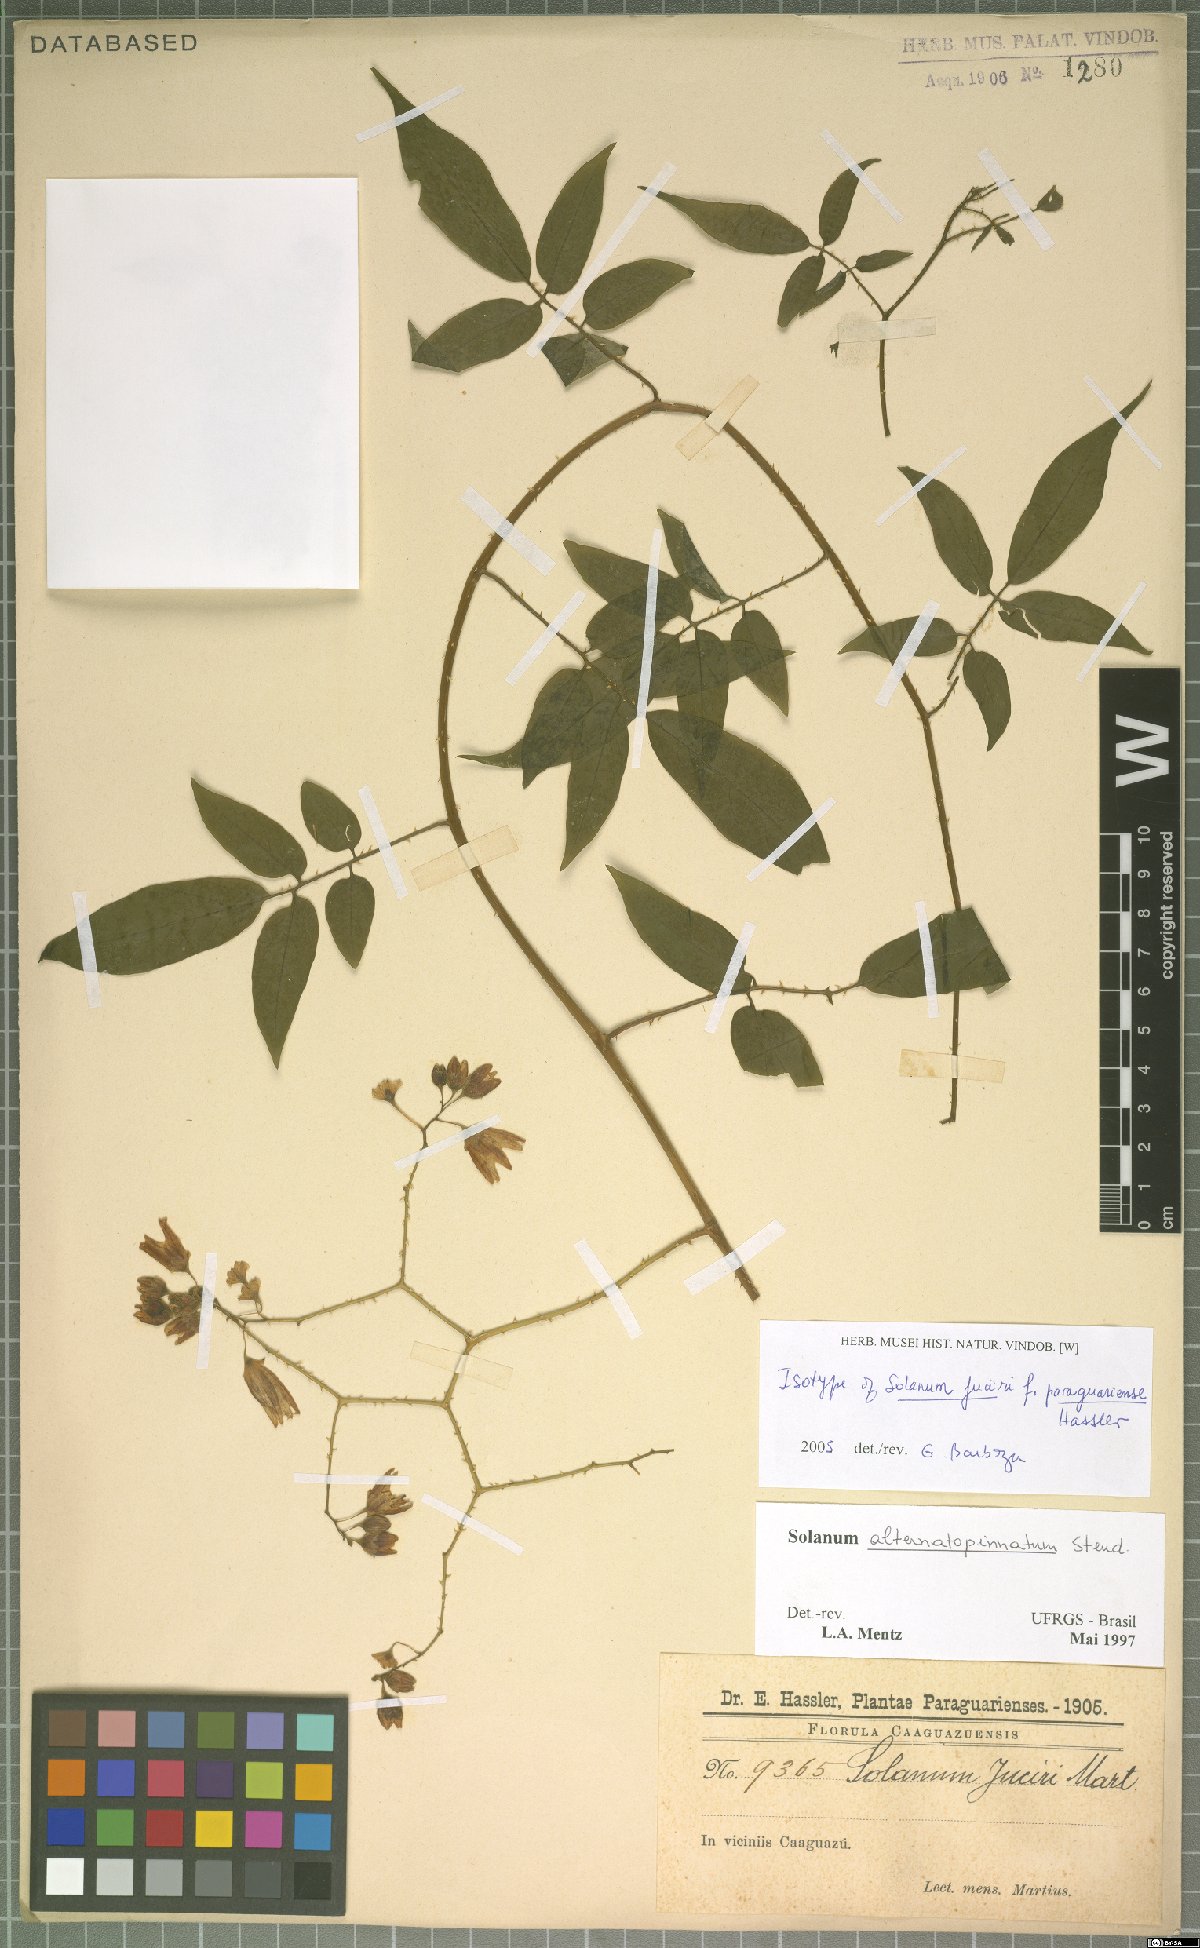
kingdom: Plantae
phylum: Tracheophyta
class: Magnoliopsida
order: Solanales
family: Solanaceae
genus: Solanum
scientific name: Solanum alternatopinnatum
